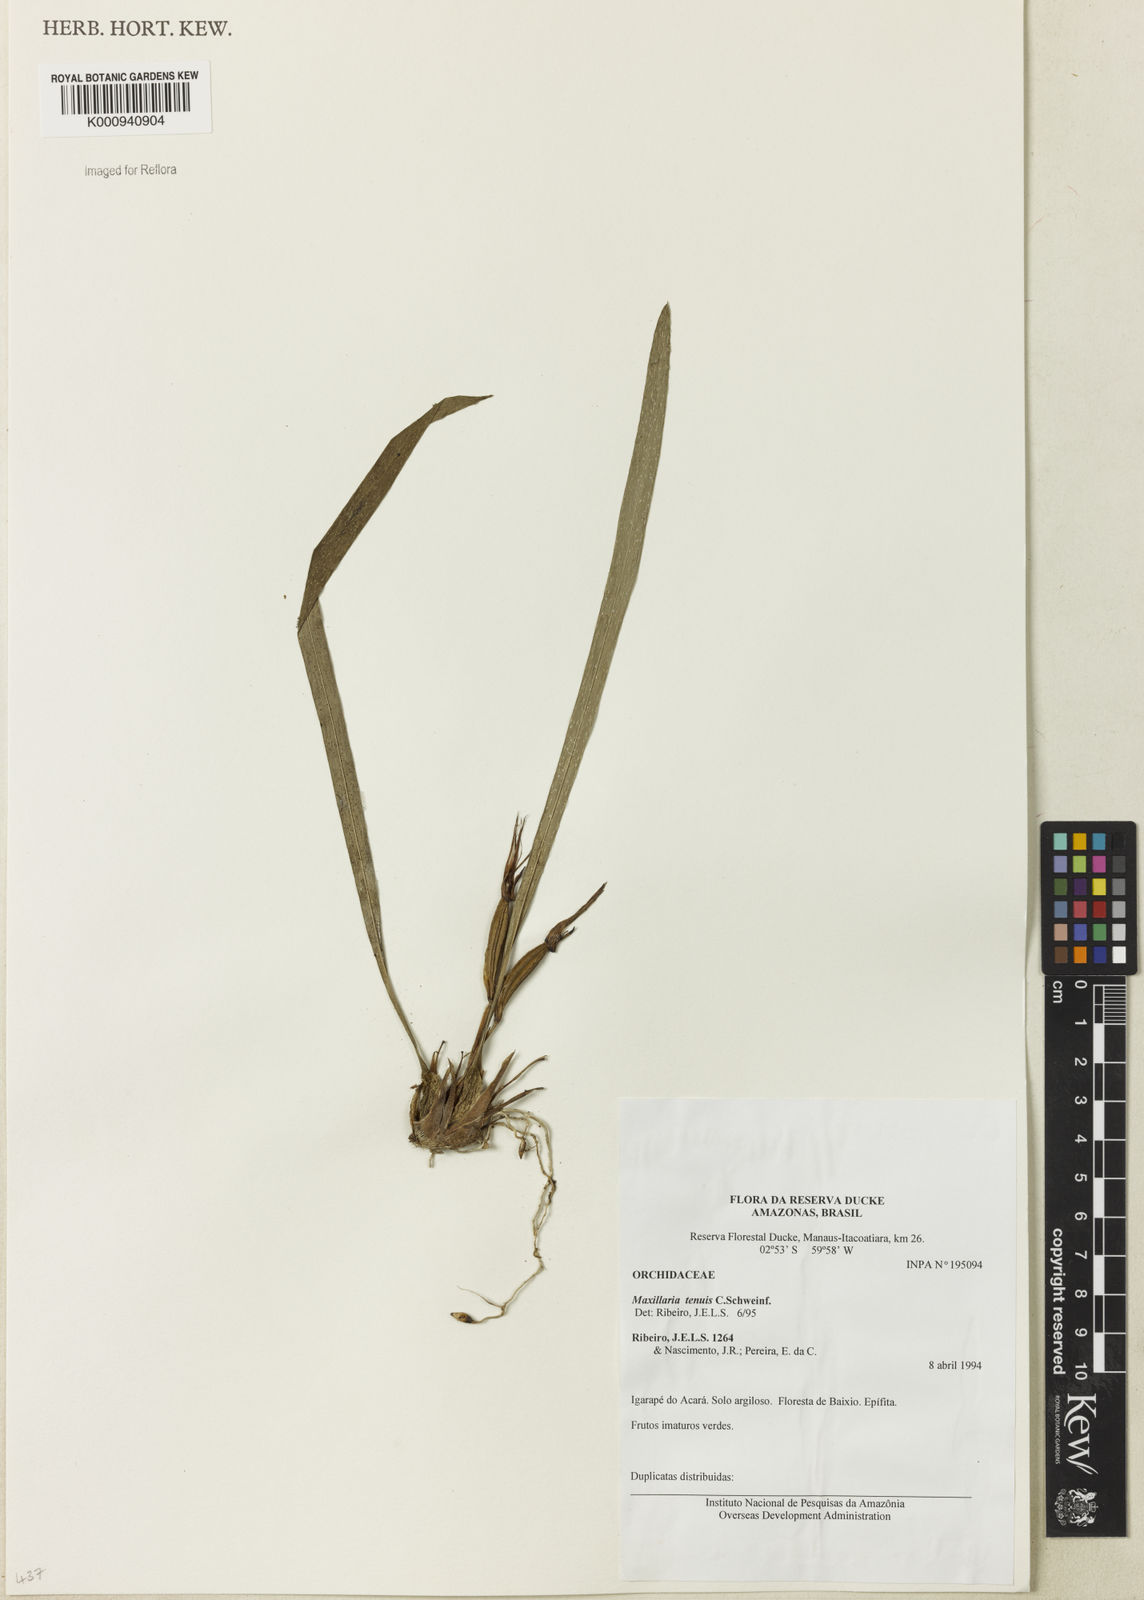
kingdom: Plantae
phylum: Tracheophyta
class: Liliopsida
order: Asparagales
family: Orchidaceae
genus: Maxillaria
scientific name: Maxillaria tenuis
